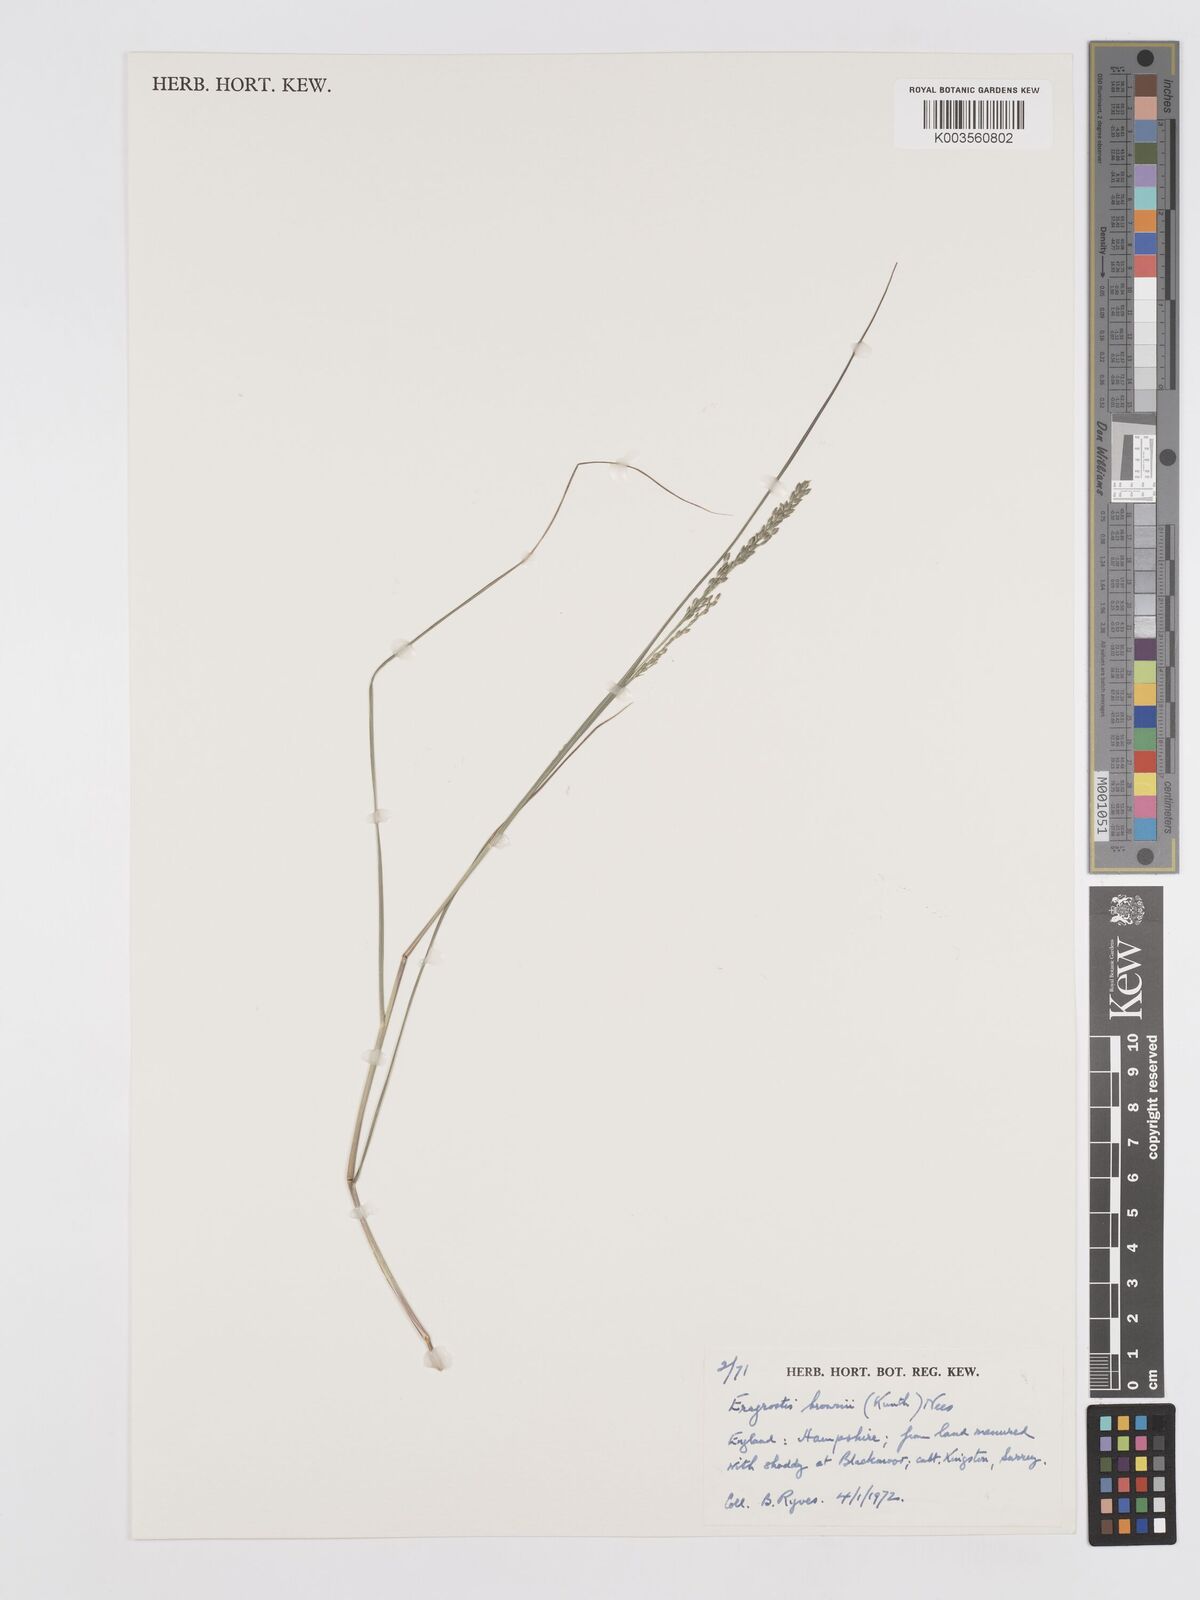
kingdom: Plantae
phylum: Tracheophyta
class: Liliopsida
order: Poales
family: Poaceae
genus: Eragrostis
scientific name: Eragrostis brownii
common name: Lovegrass
